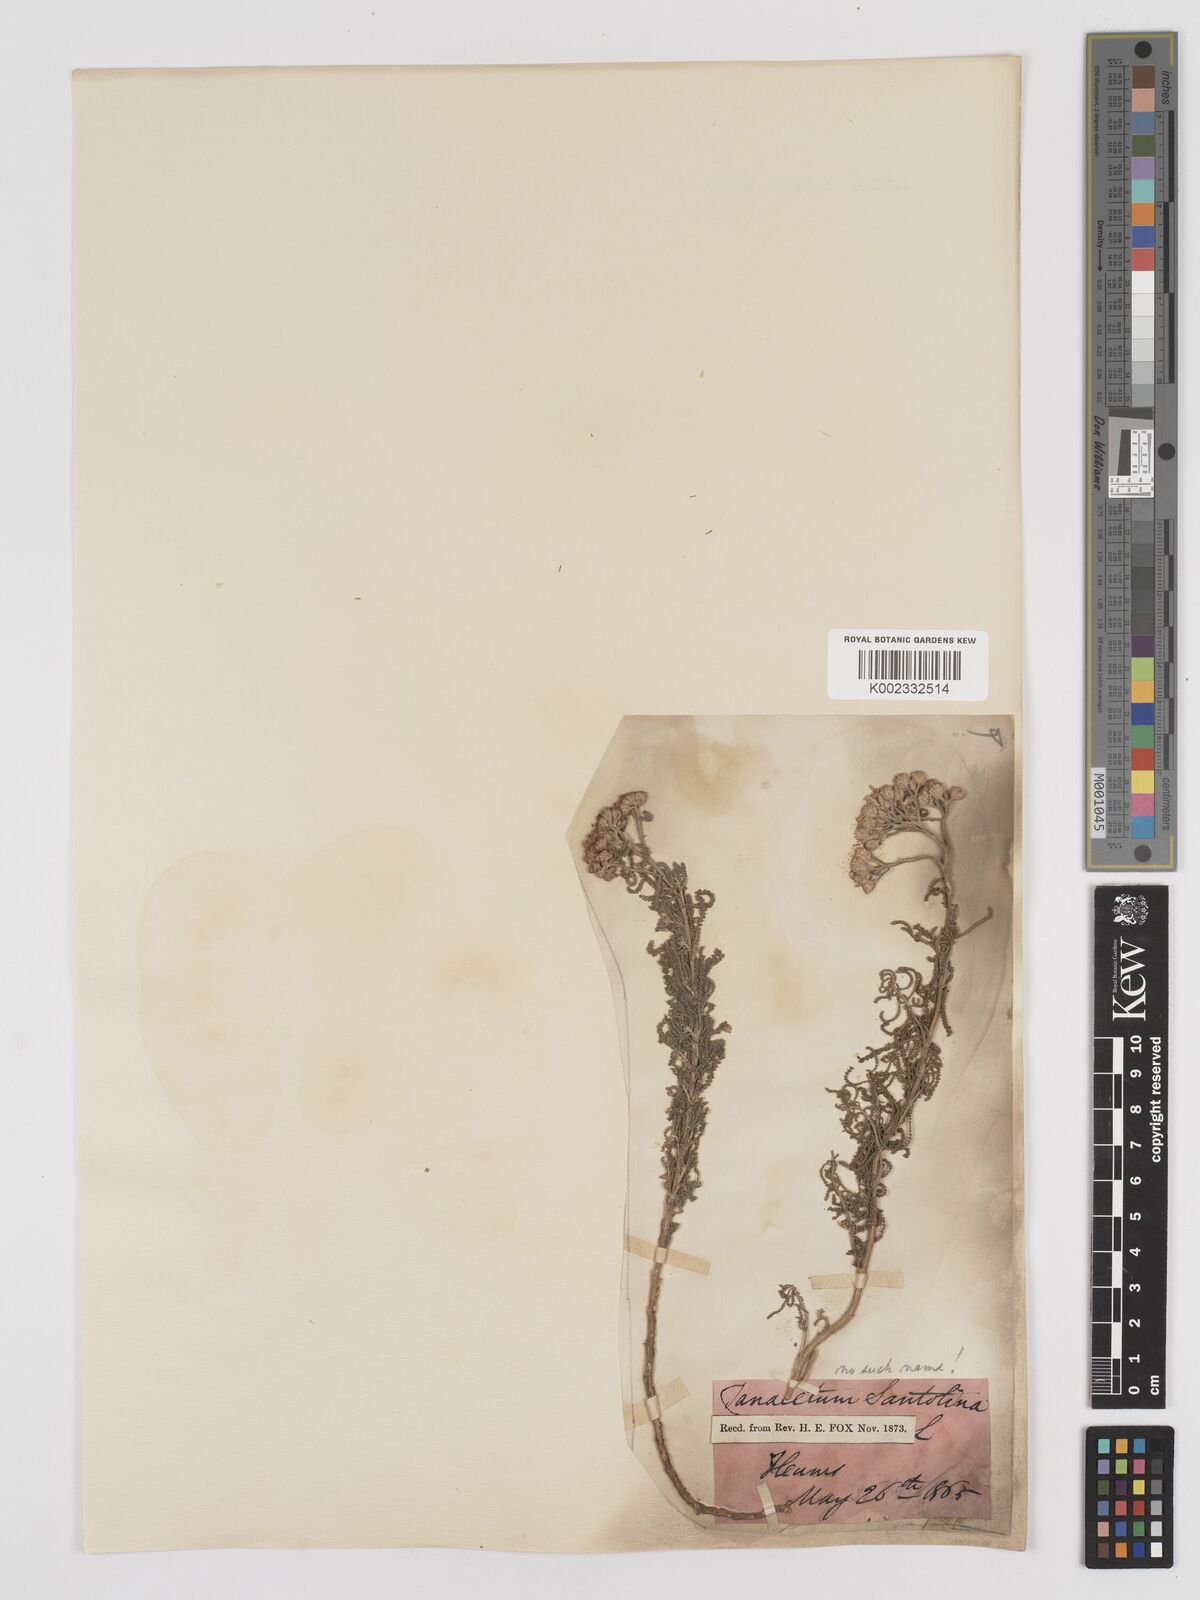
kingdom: Plantae
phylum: Tracheophyta
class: Magnoliopsida
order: Asterales
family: Asteraceae
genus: Achillea
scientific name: Achillea tenuifolia
